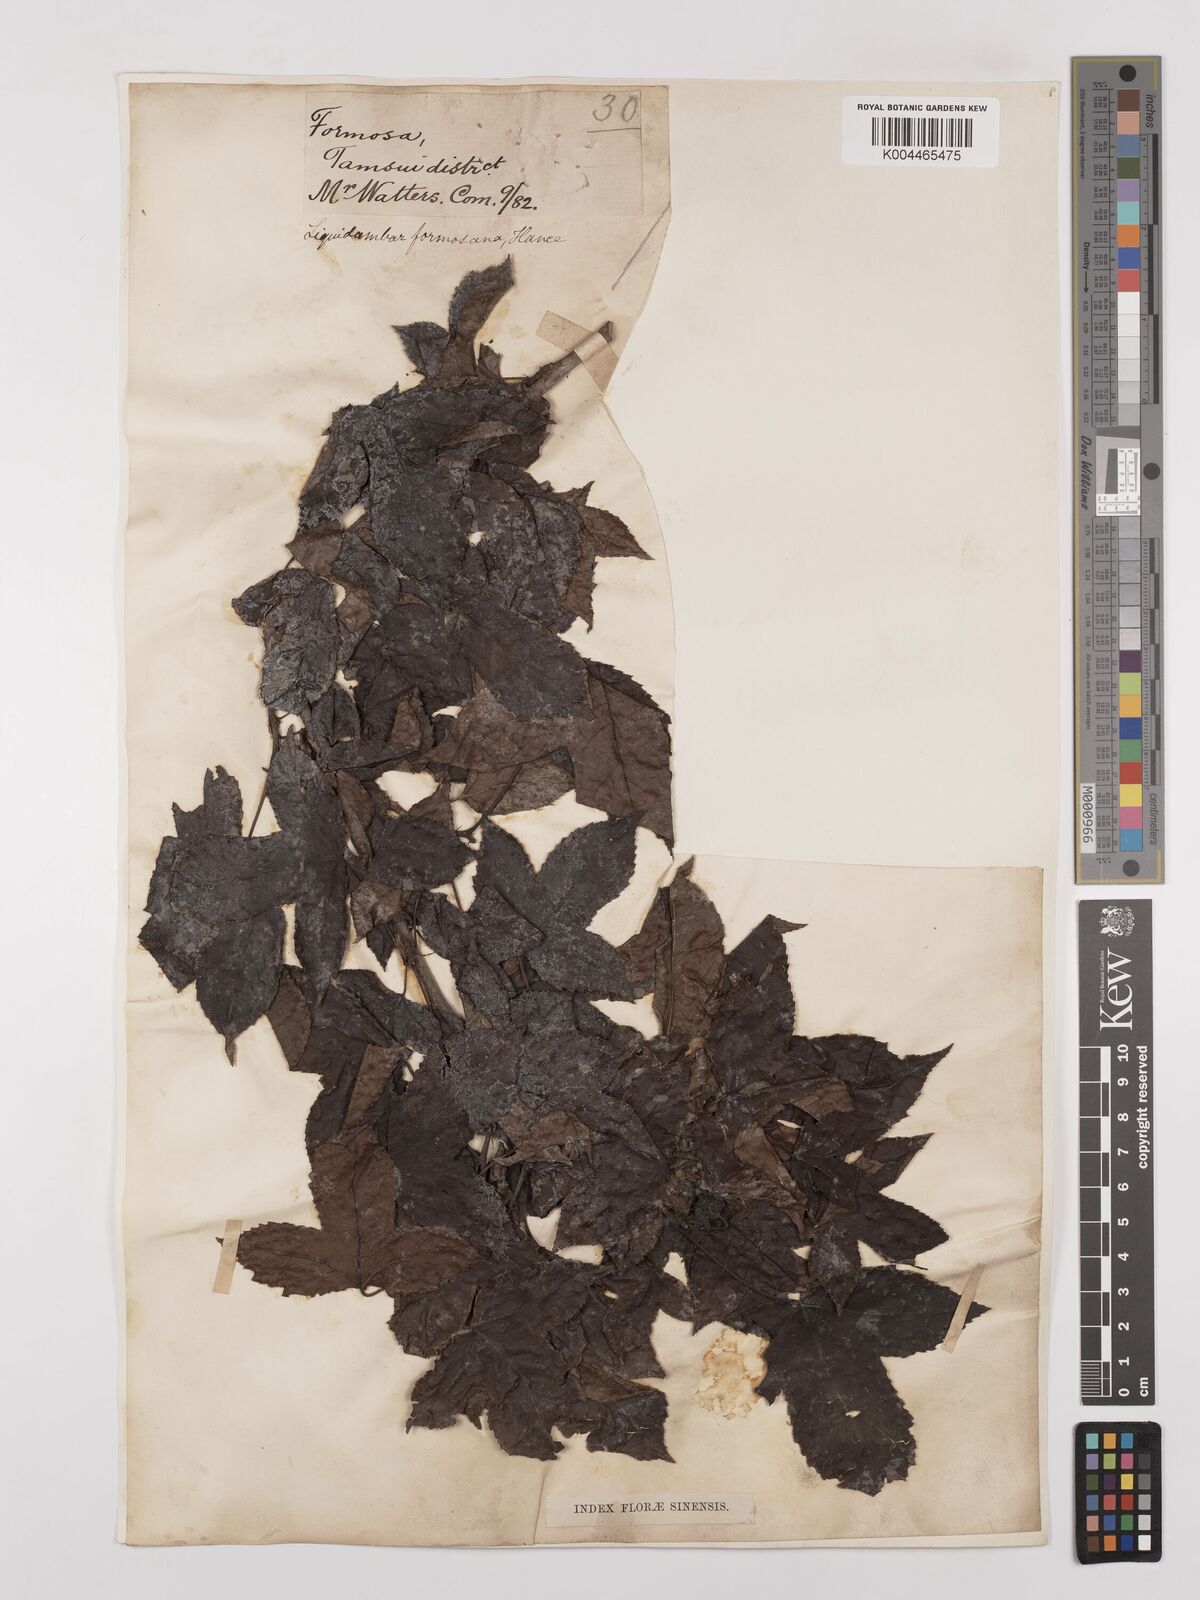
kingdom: Plantae
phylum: Tracheophyta
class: Magnoliopsida
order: Saxifragales
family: Altingiaceae
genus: Liquidambar
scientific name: Liquidambar formosana
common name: Chinese sweet gum
